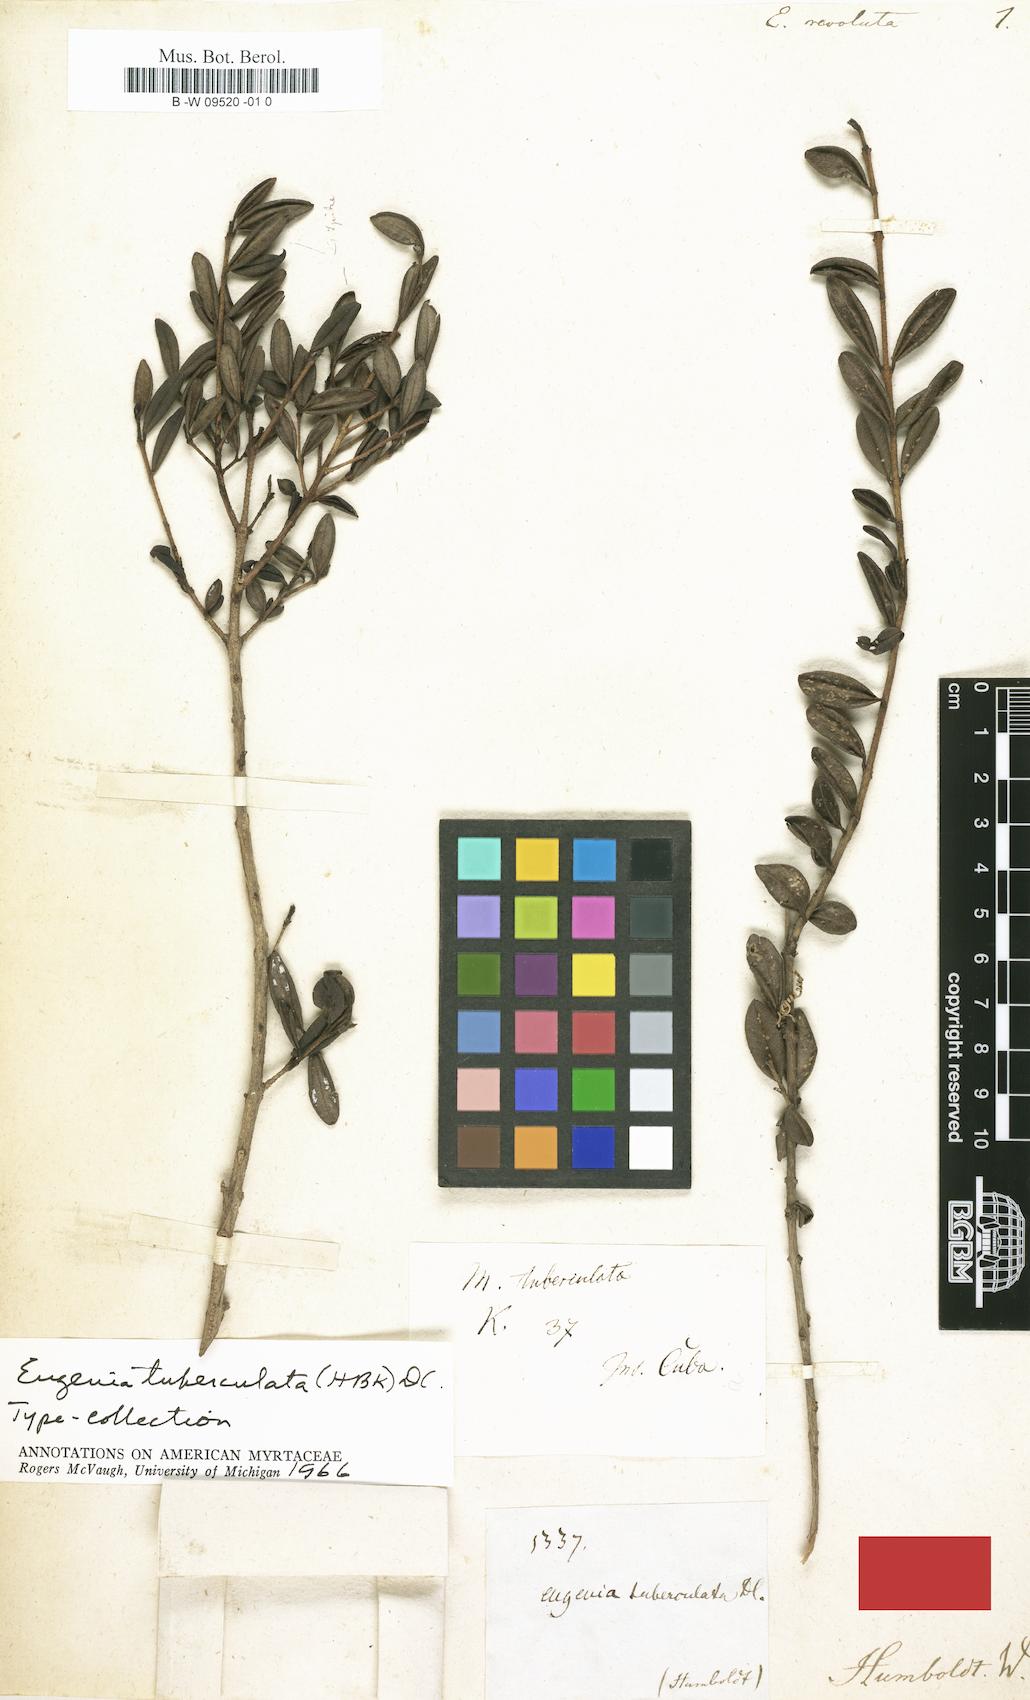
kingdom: Plantae
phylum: Tracheophyta
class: Magnoliopsida
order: Myrtales
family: Myrtaceae
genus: Eugenia
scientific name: Eugenia oxysepala
